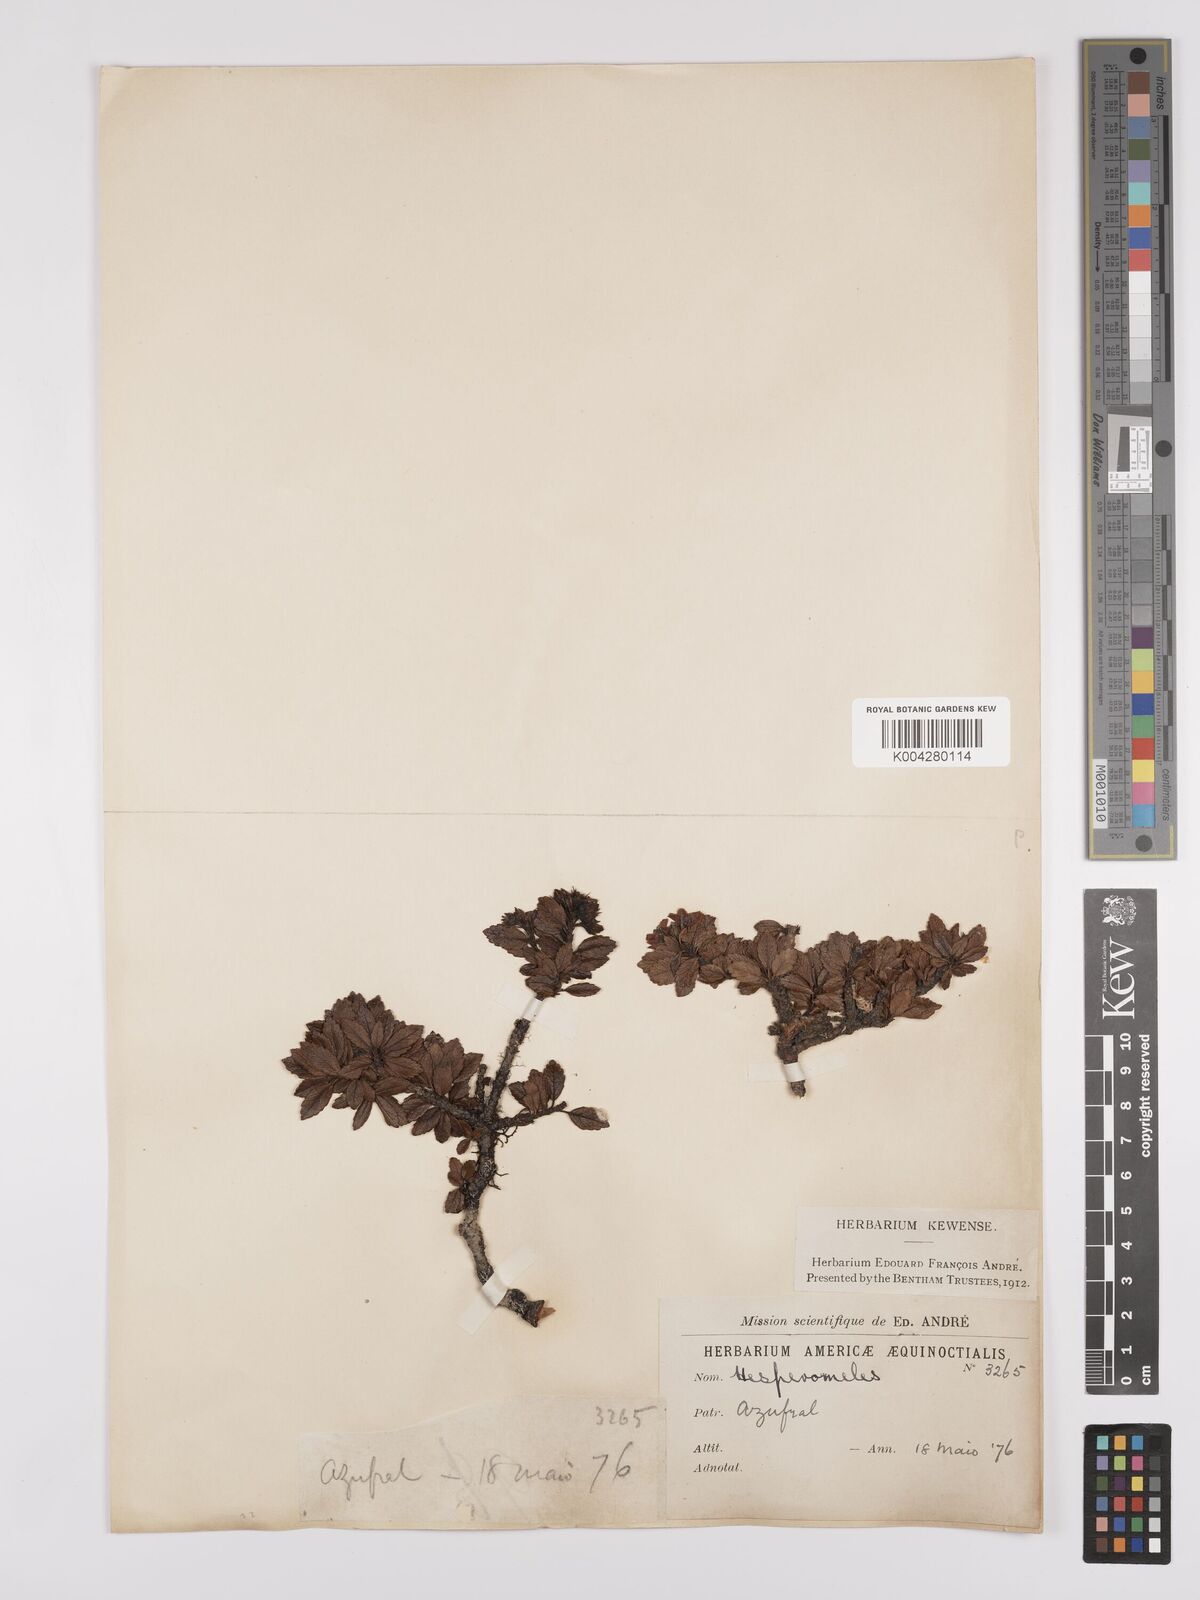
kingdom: Plantae
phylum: Tracheophyta
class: Magnoliopsida
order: Rosales
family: Rosaceae
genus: Hesperomeles
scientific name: Hesperomeles obtusifolia
